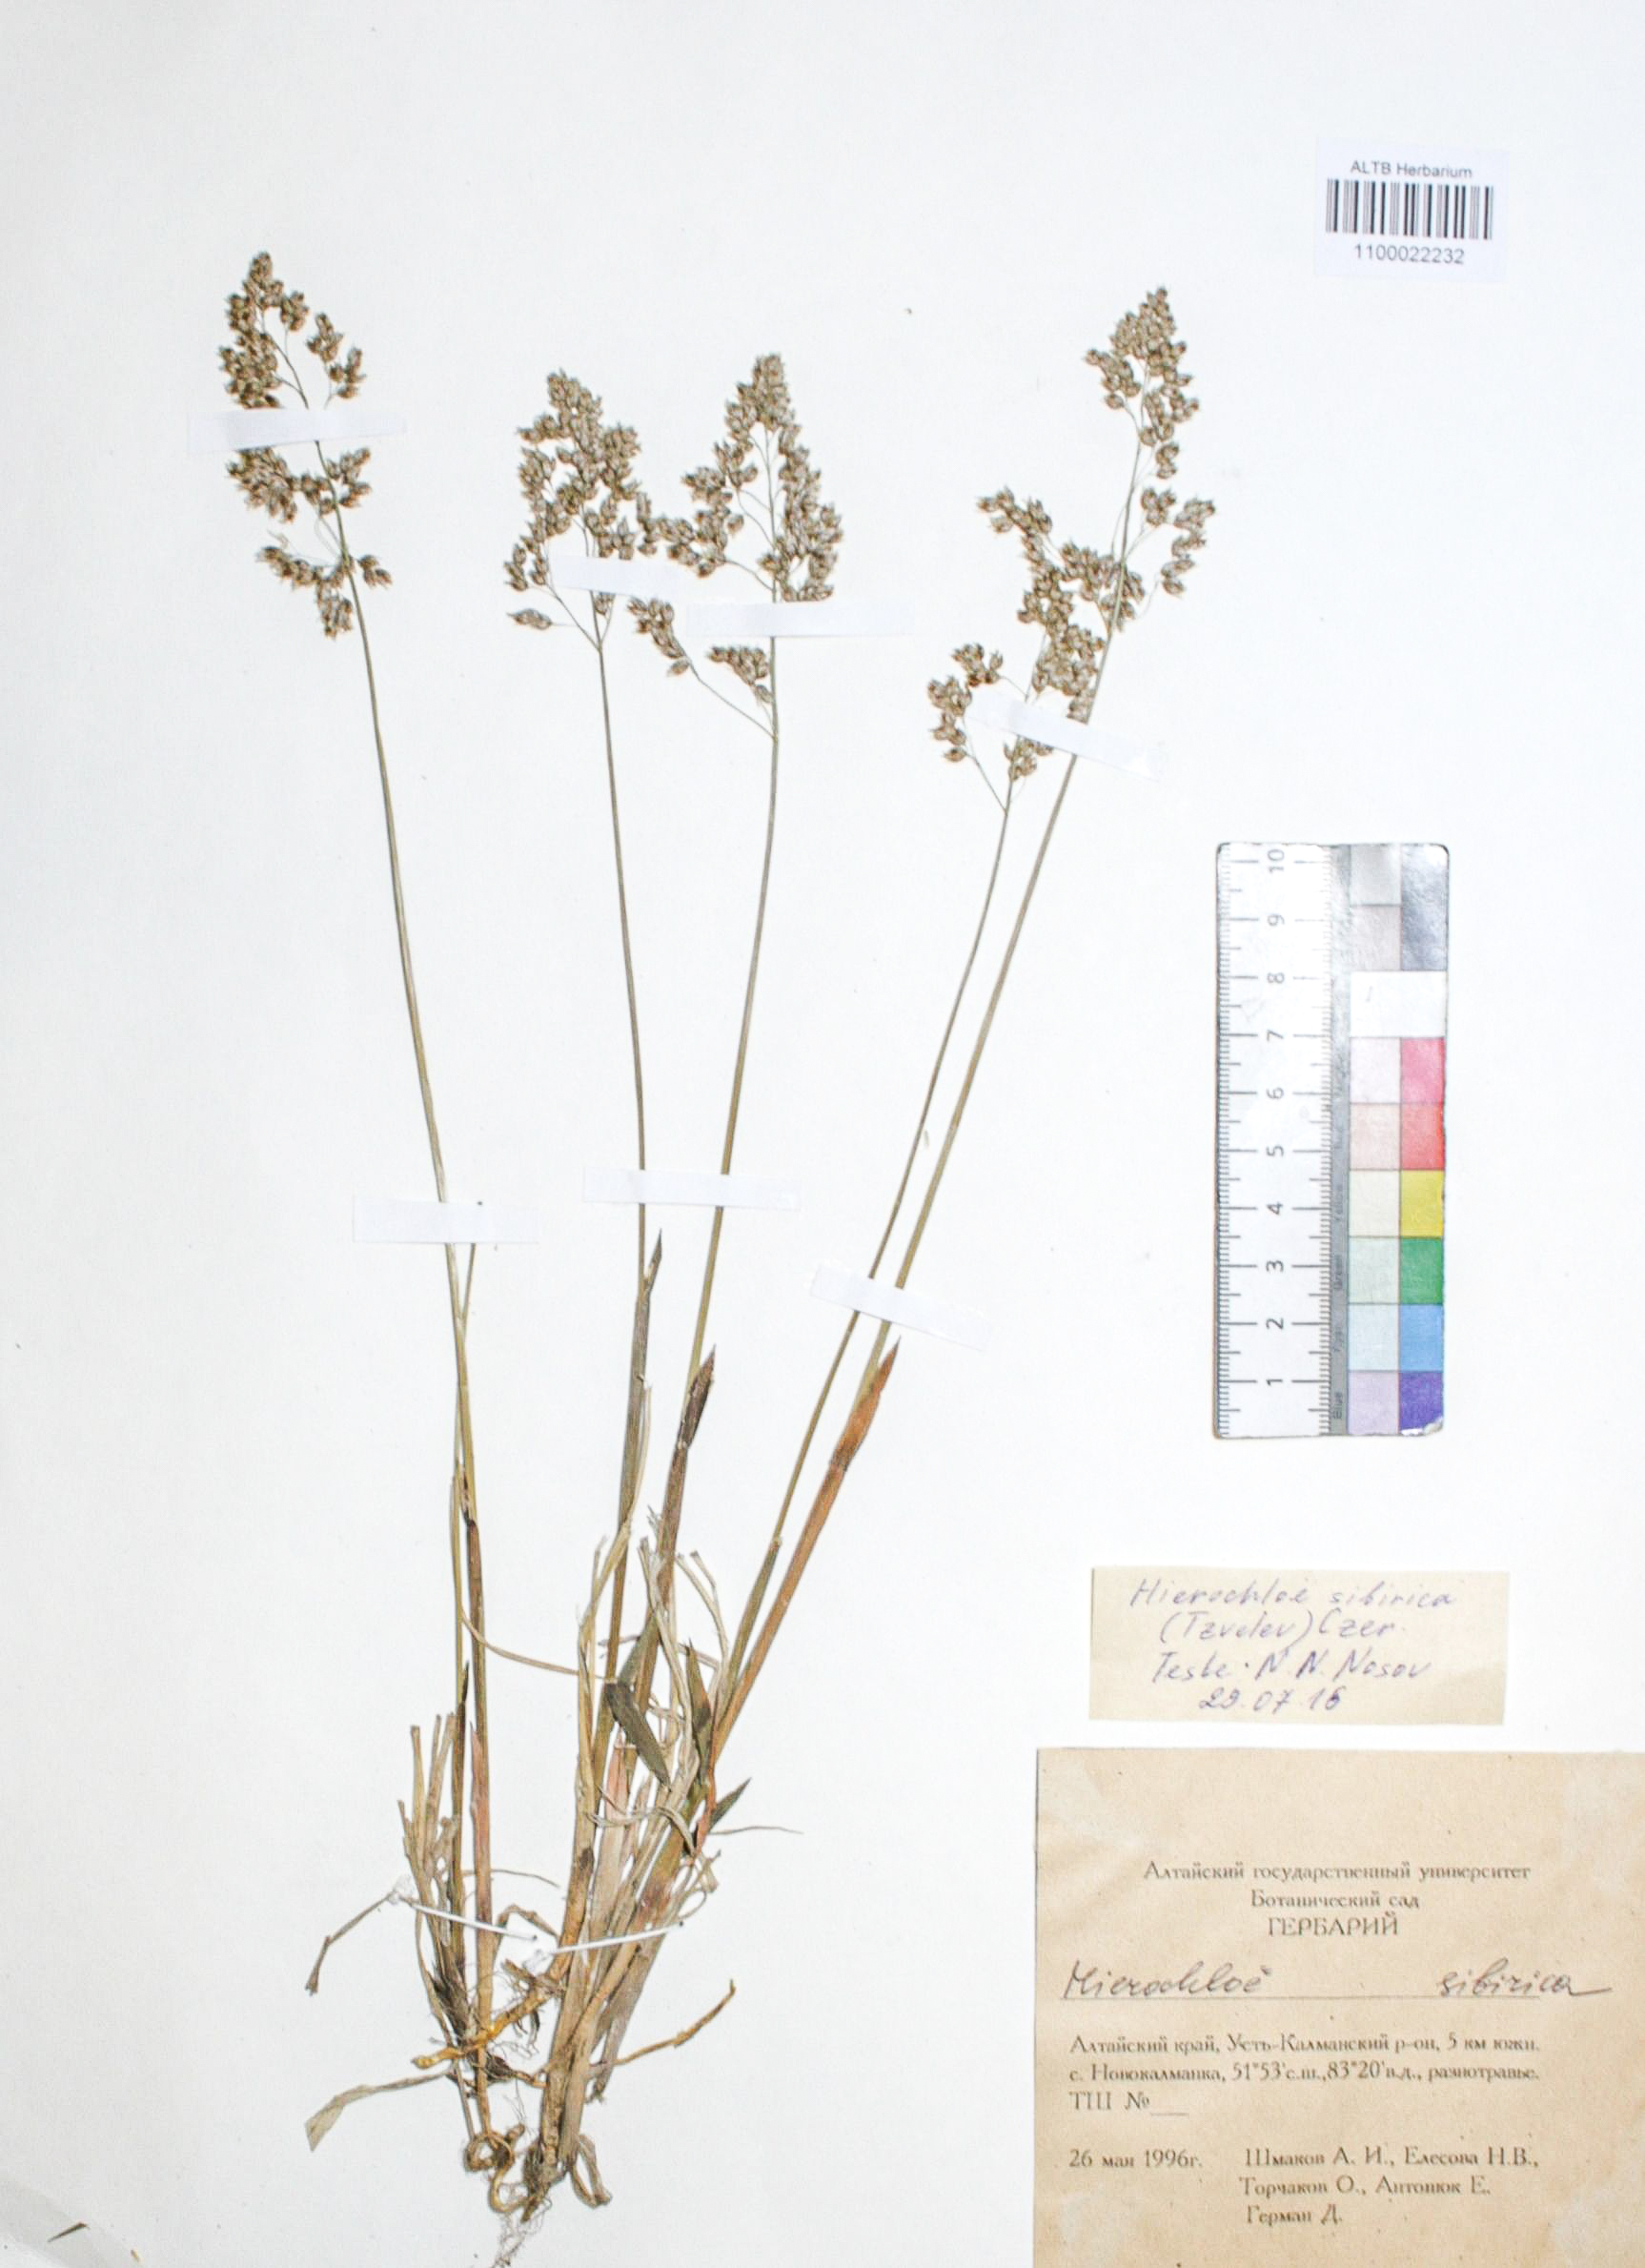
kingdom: Plantae
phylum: Tracheophyta
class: Liliopsida
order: Poales
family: Poaceae
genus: Anthoxanthum
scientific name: Anthoxanthum glabrum
